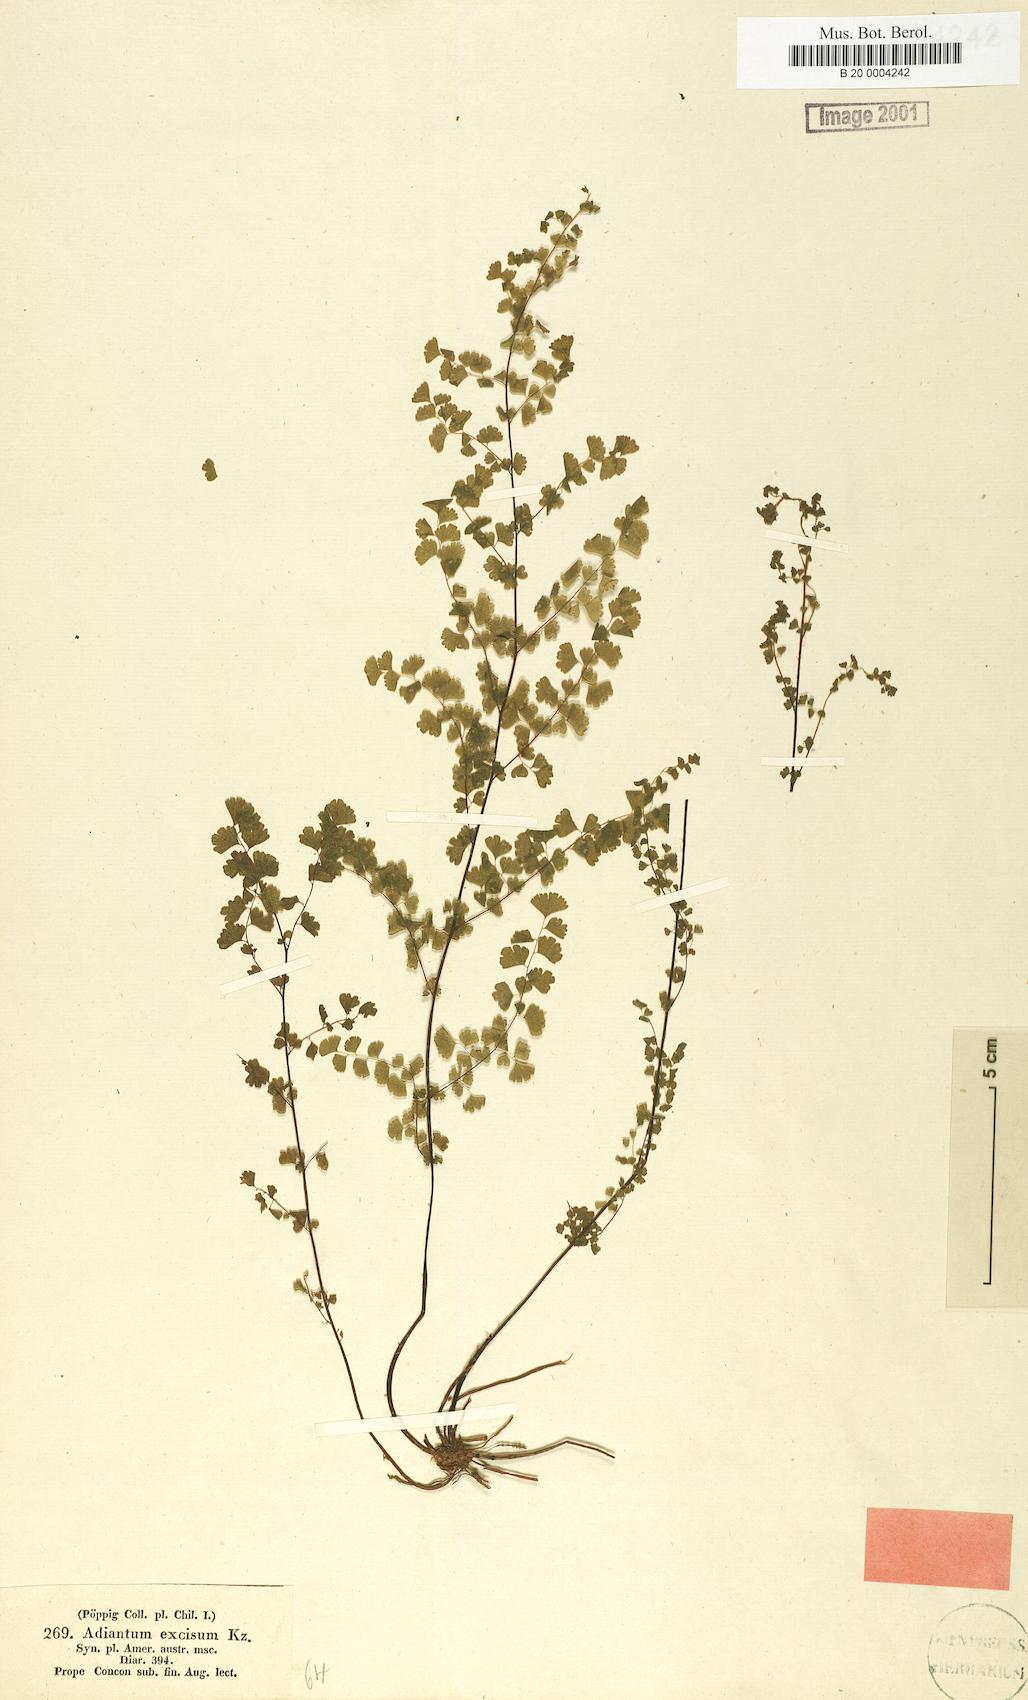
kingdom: Plantae
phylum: Tracheophyta
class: Polypodiopsida
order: Polypodiales
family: Pteridaceae
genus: Adiantum
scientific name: Adiantum excisum
